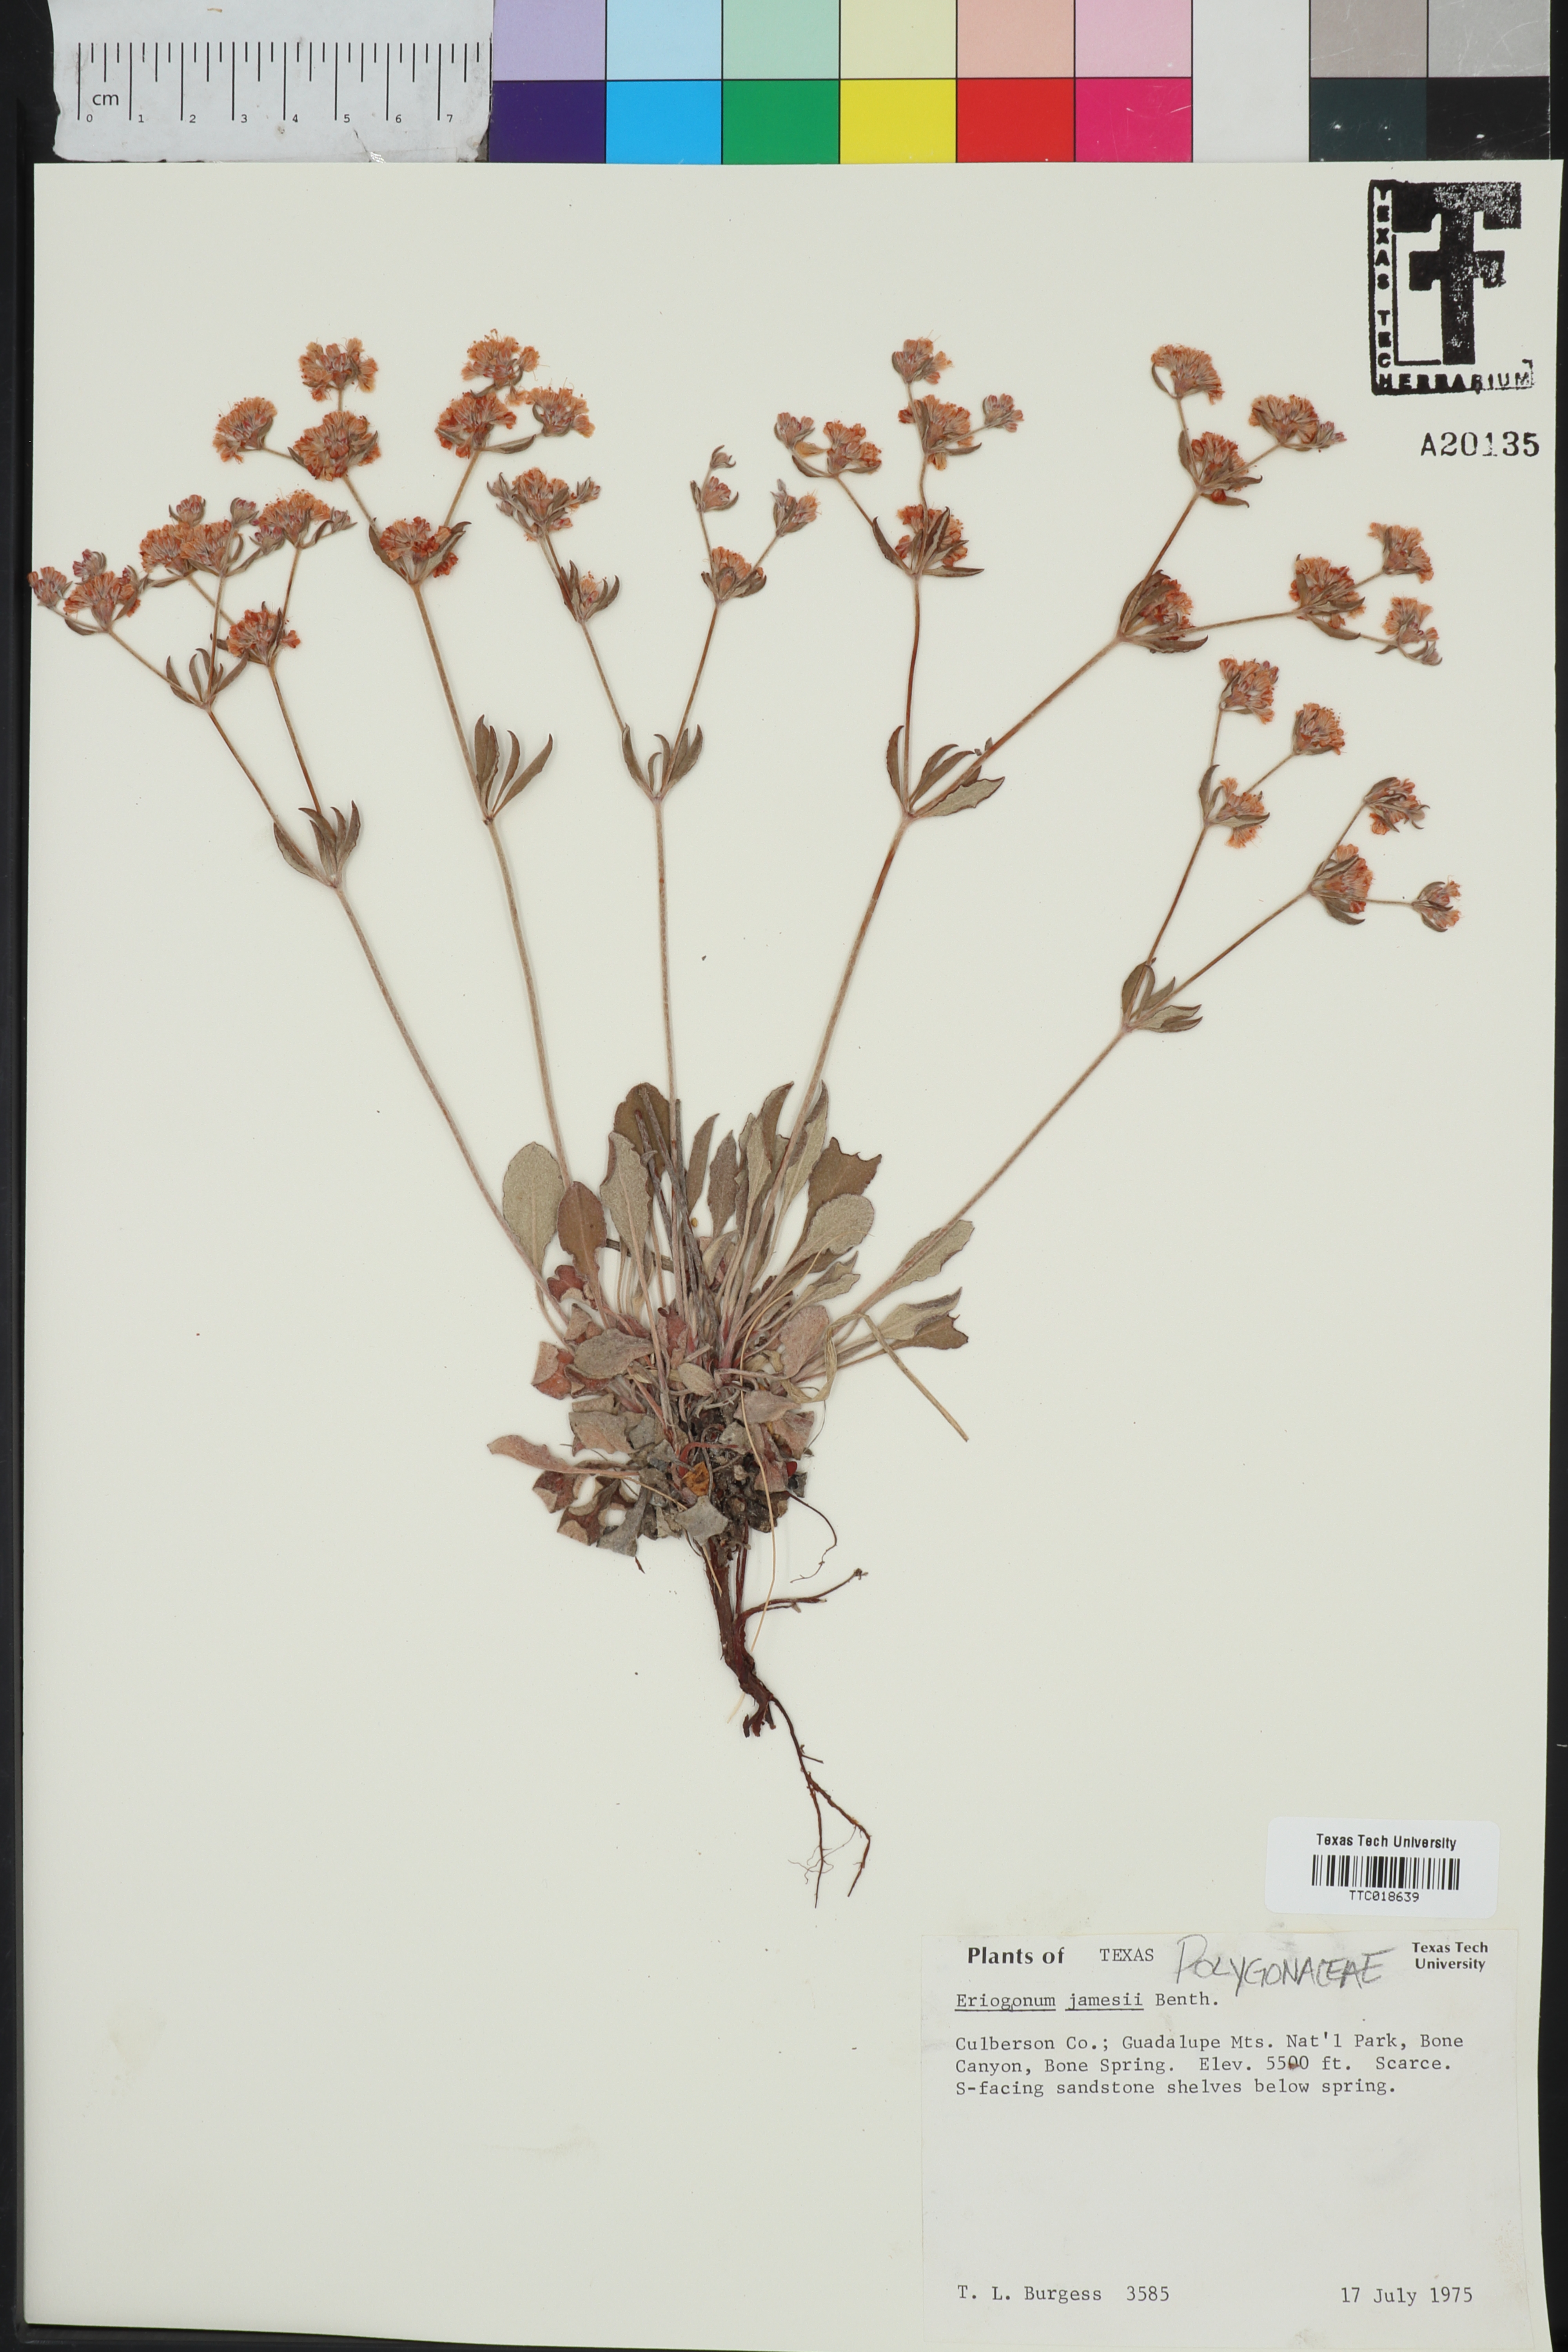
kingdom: Plantae
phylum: Tracheophyta
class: Magnoliopsida
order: Caryophyllales
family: Polygonaceae
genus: Eriogonum
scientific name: Eriogonum jamesii
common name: Antelope-sage
